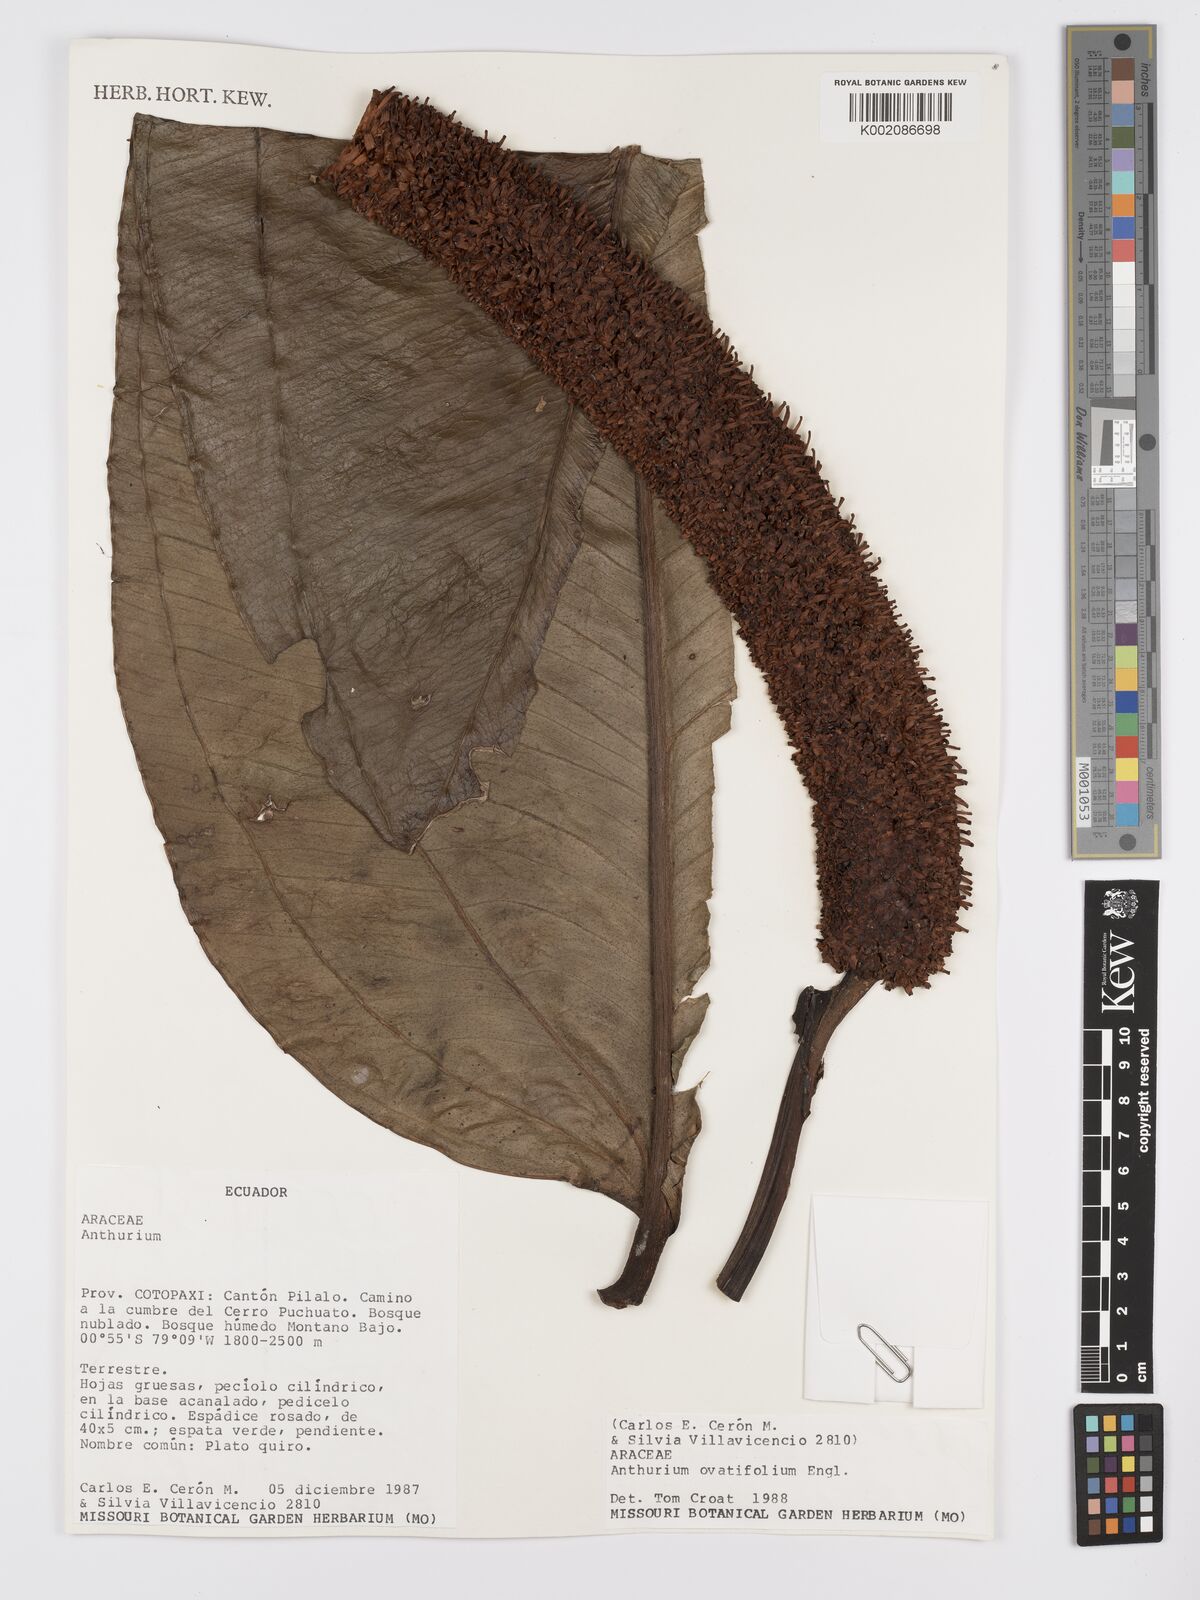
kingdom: Plantae
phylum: Tracheophyta
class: Liliopsida
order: Alismatales
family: Araceae
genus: Anthurium
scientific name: Anthurium ovatifolium
